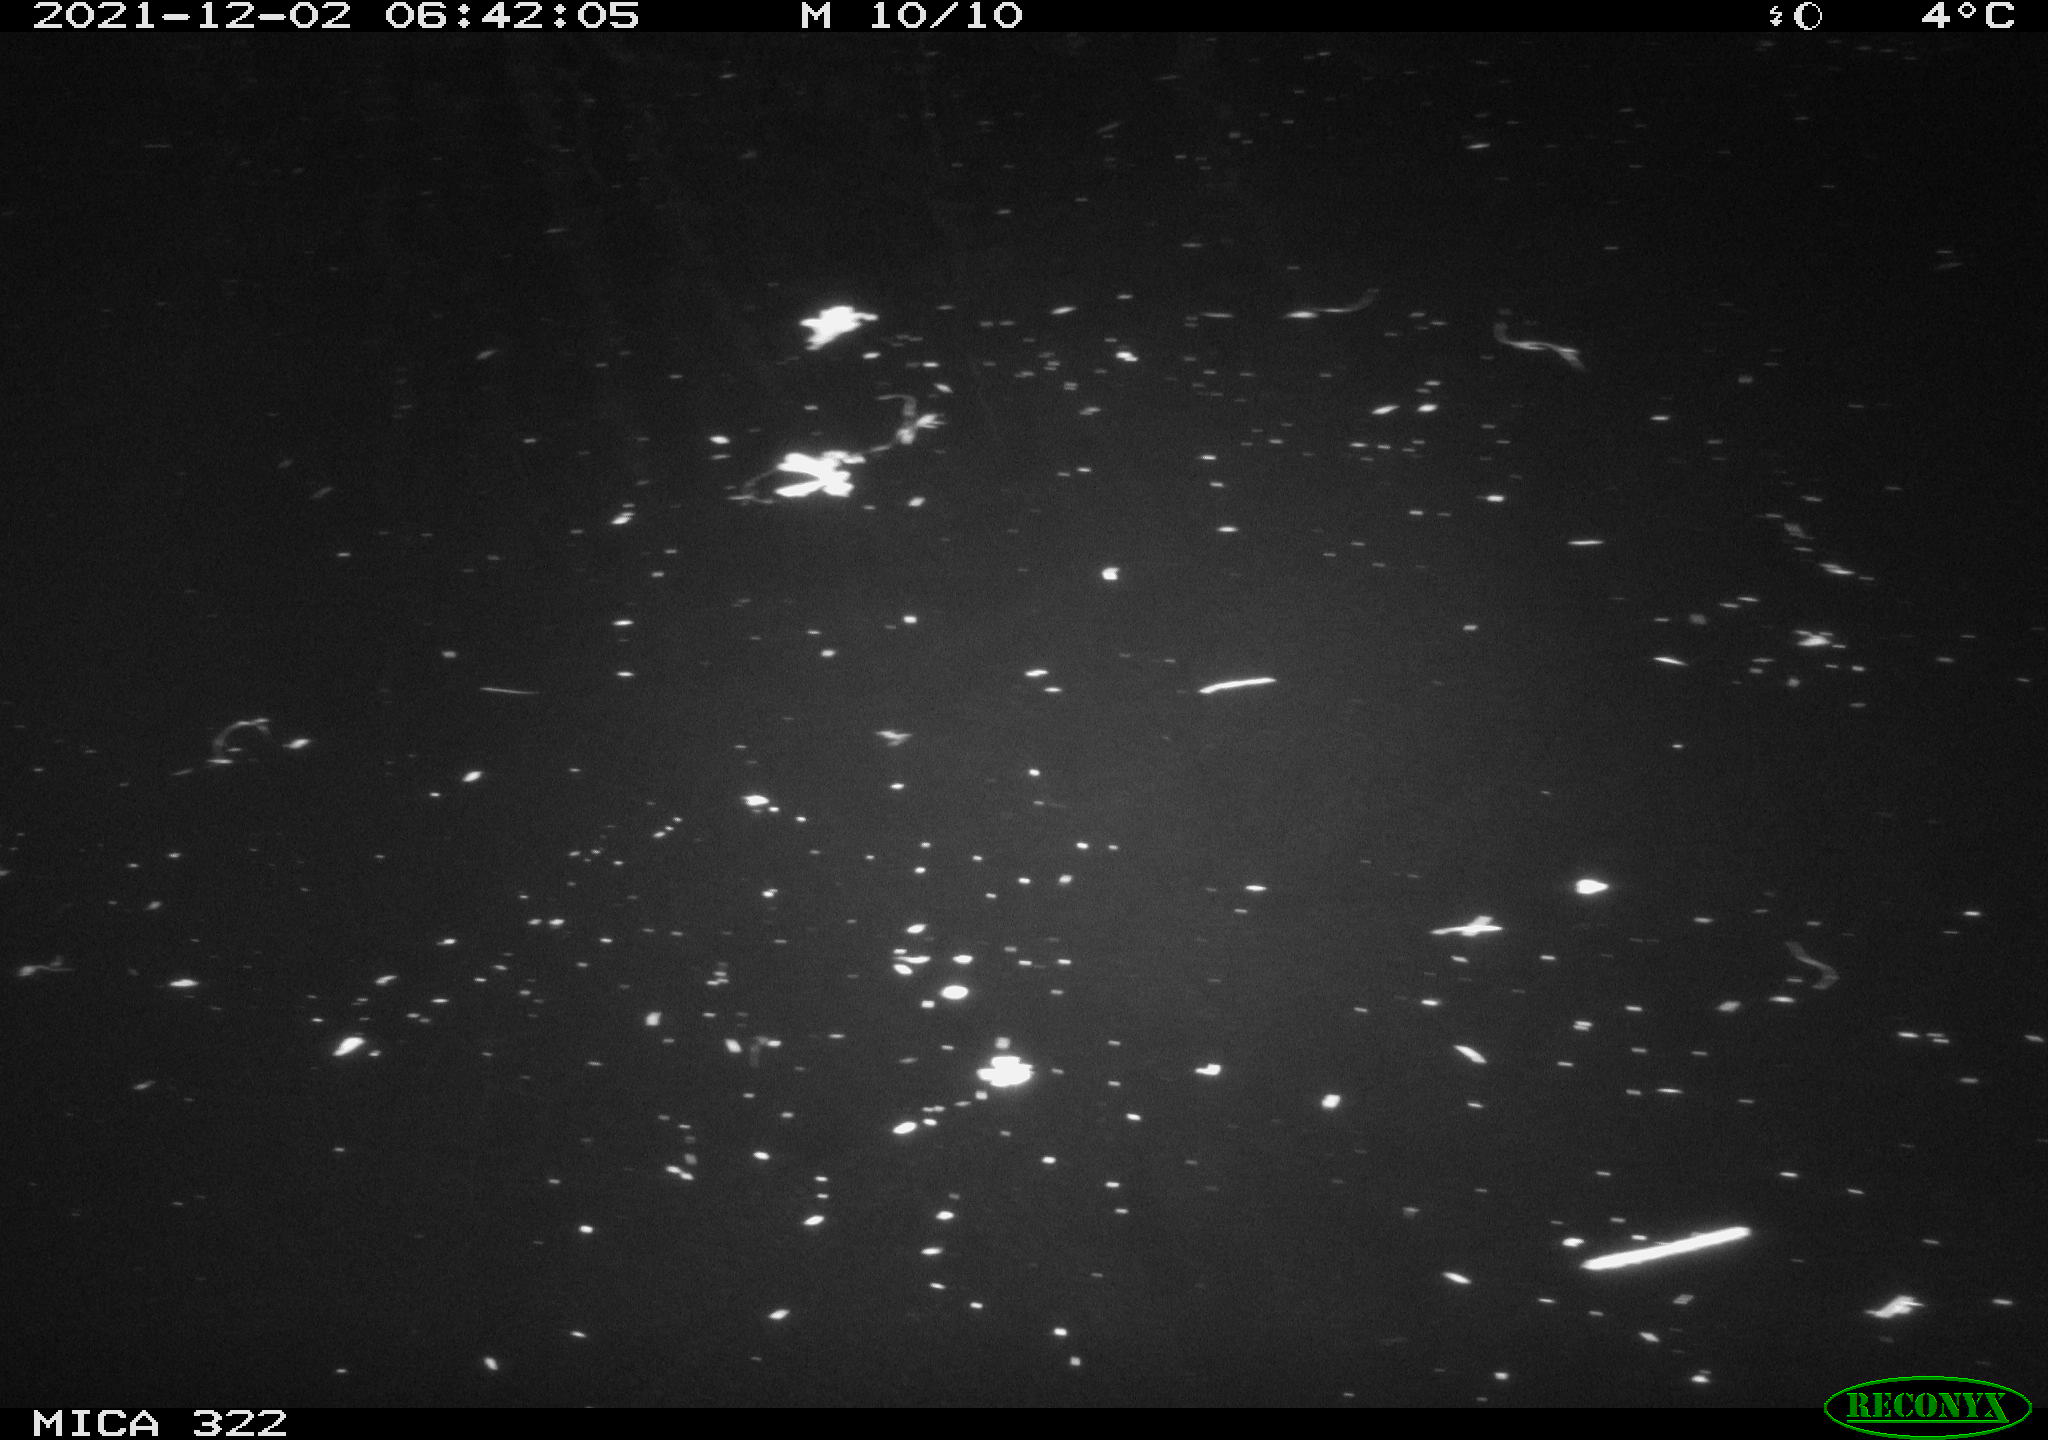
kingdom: Animalia
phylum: Chordata
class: Mammalia
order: Rodentia
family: Muridae
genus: Rattus
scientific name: Rattus norvegicus
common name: Brown rat
